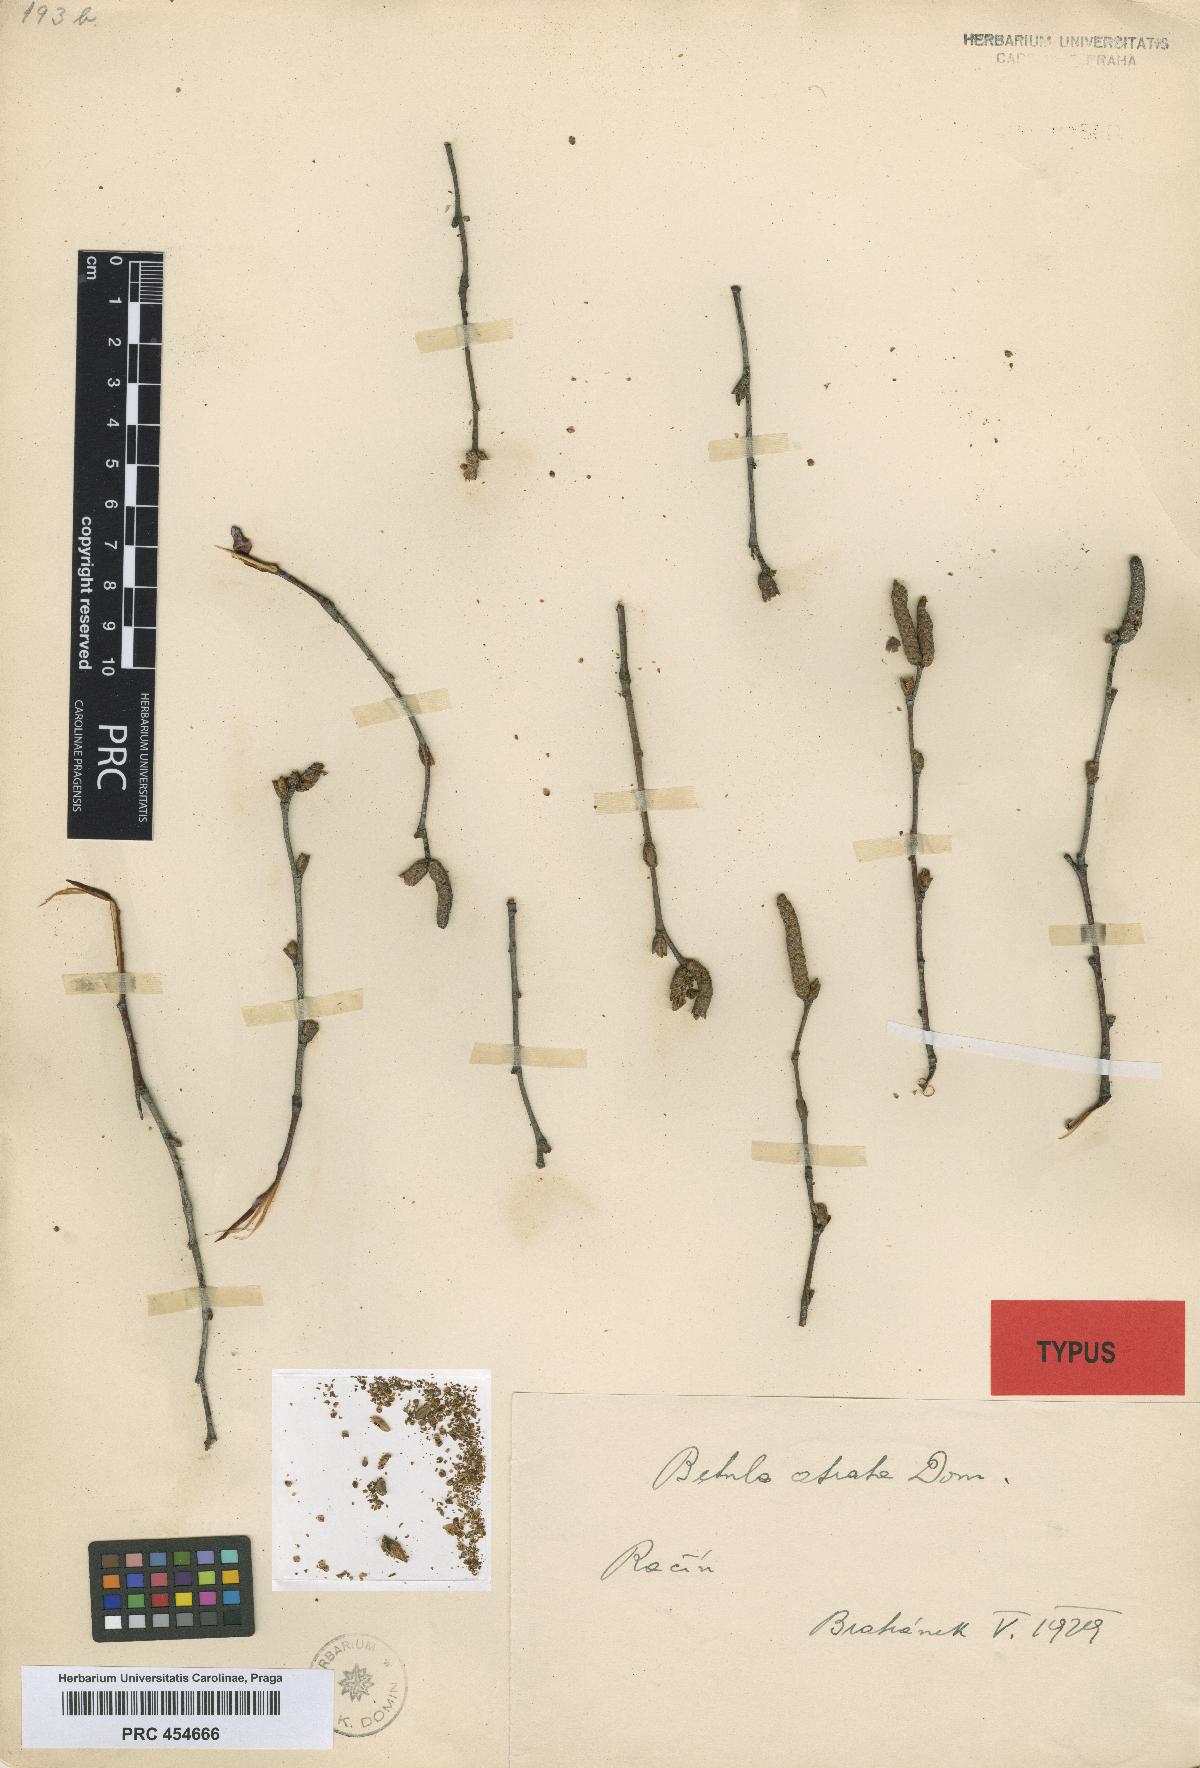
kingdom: Plantae
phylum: Tracheophyta
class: Magnoliopsida
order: Fagales
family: Betulaceae
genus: Betula
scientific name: Betula aurata
